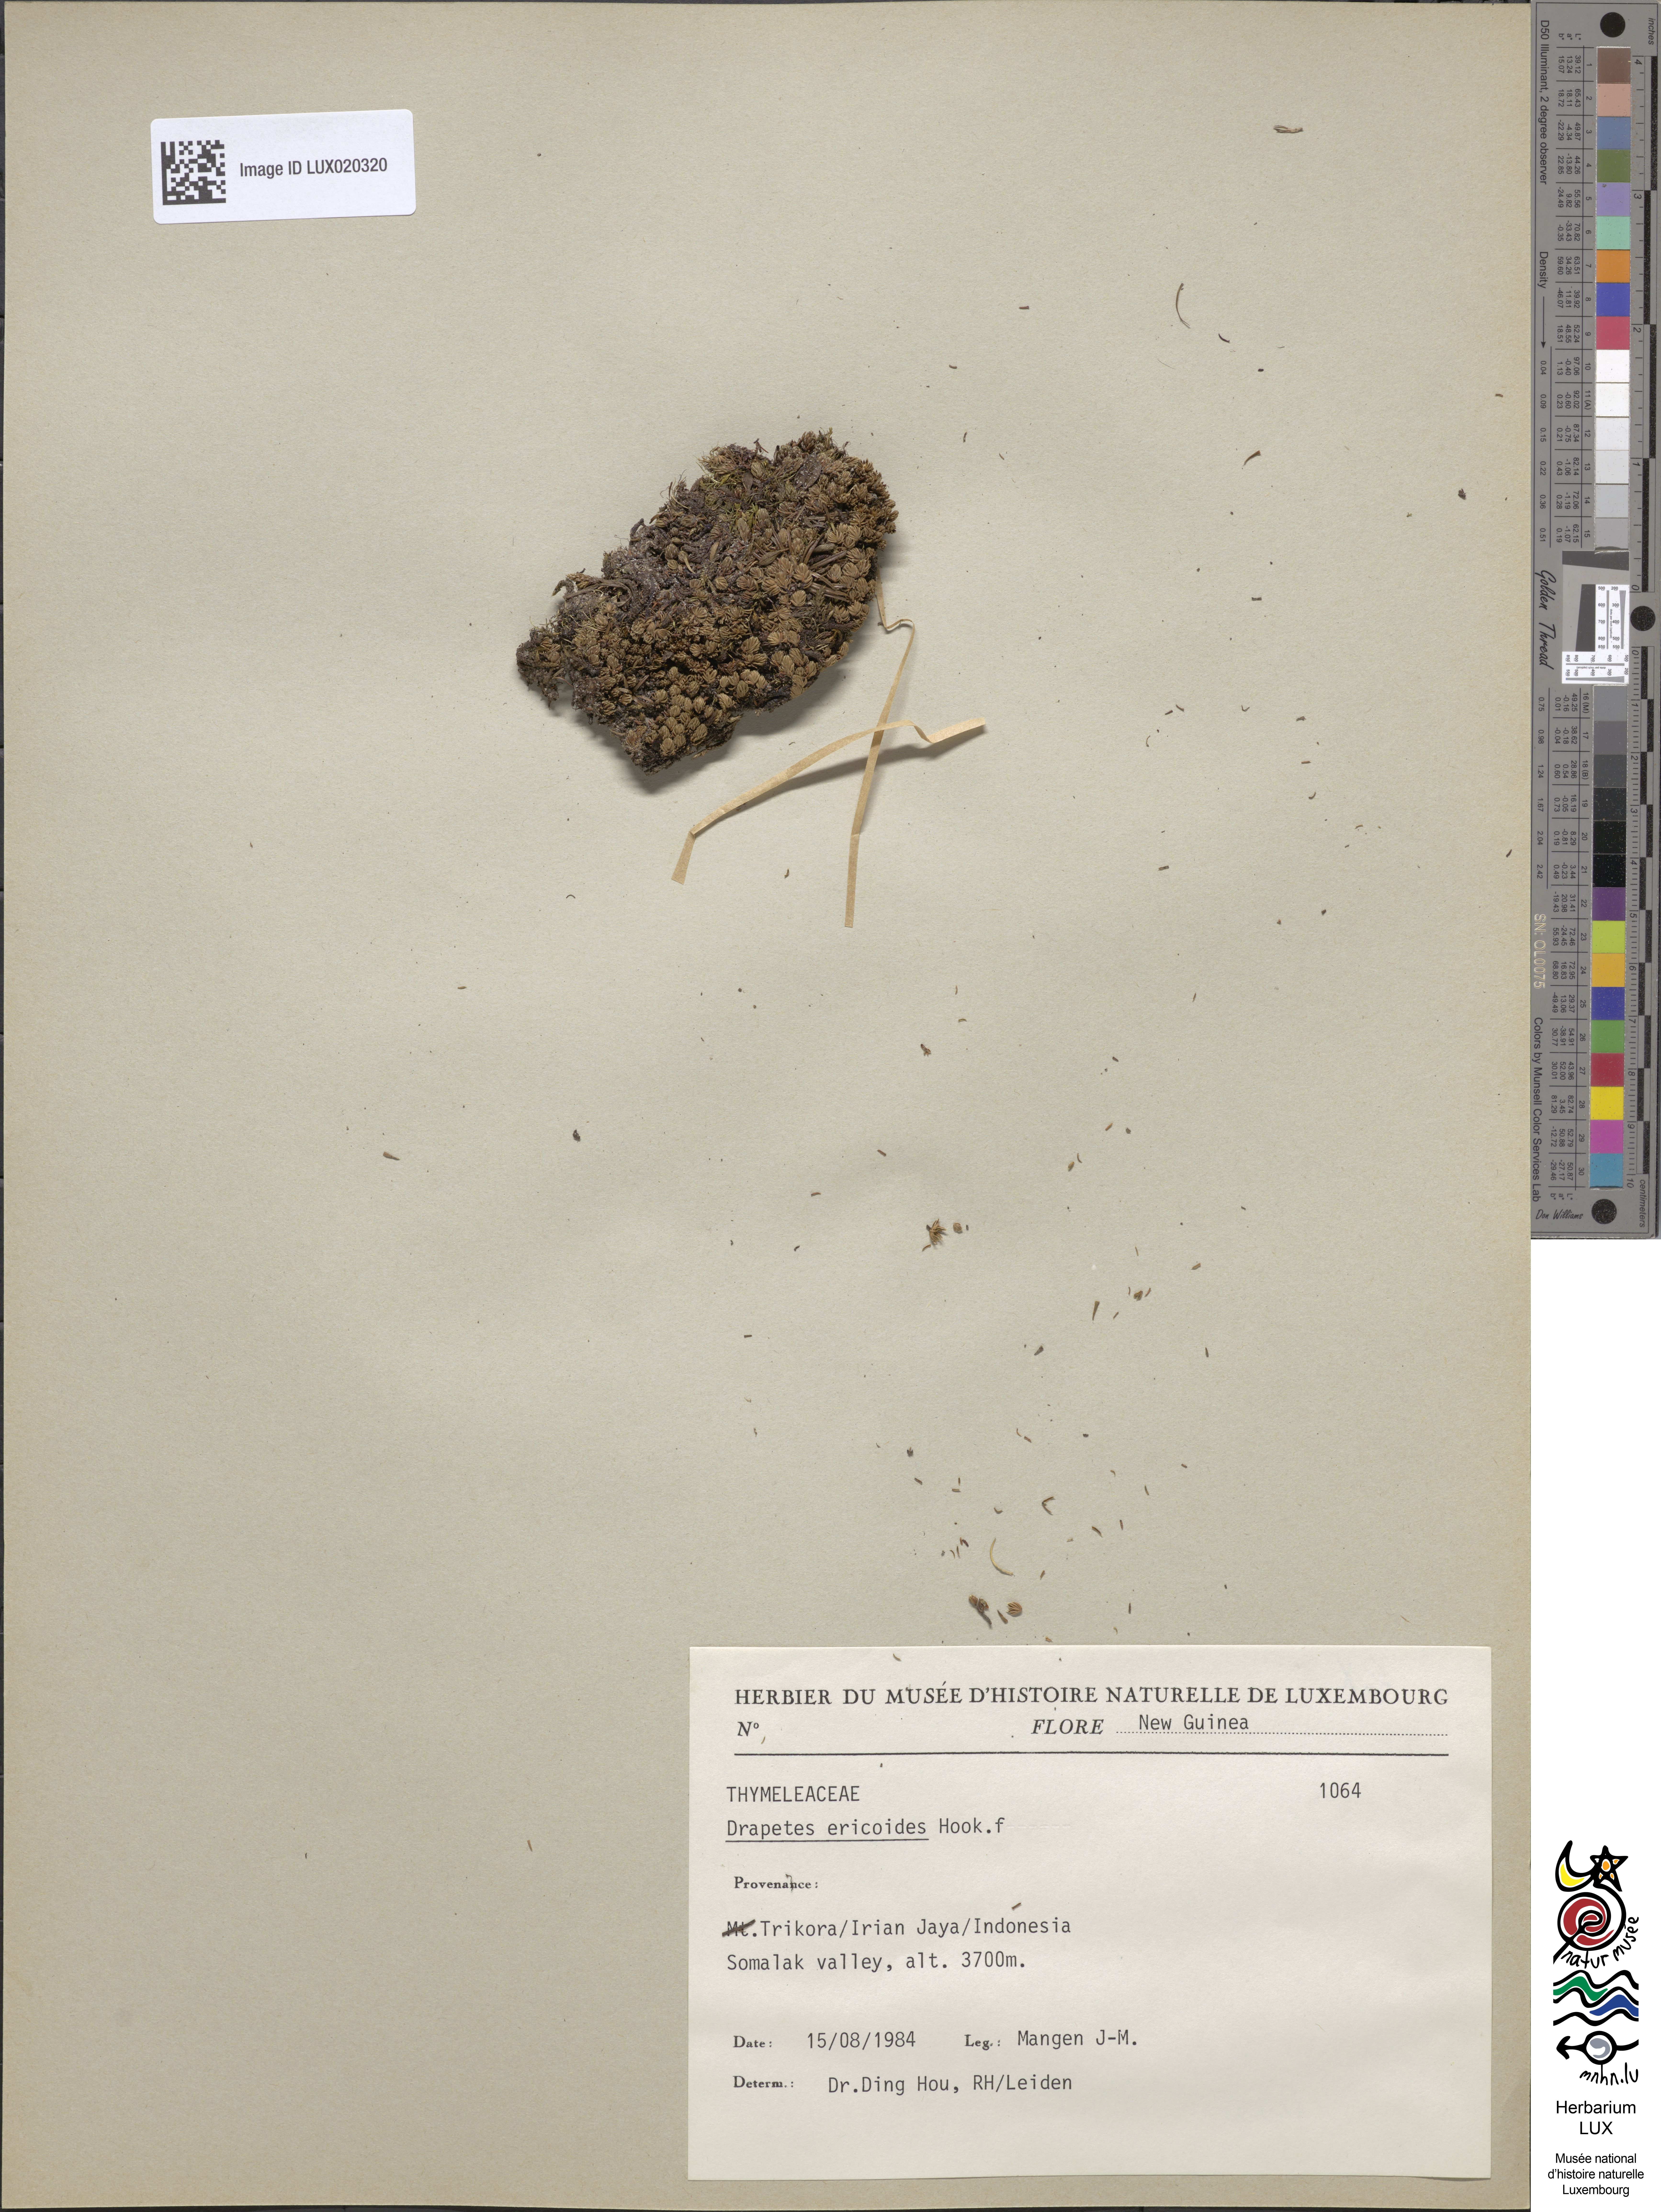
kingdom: Animalia
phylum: Arthropoda
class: Insecta
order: Coleoptera
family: Elateridae
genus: Drapetes
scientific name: Drapetes
